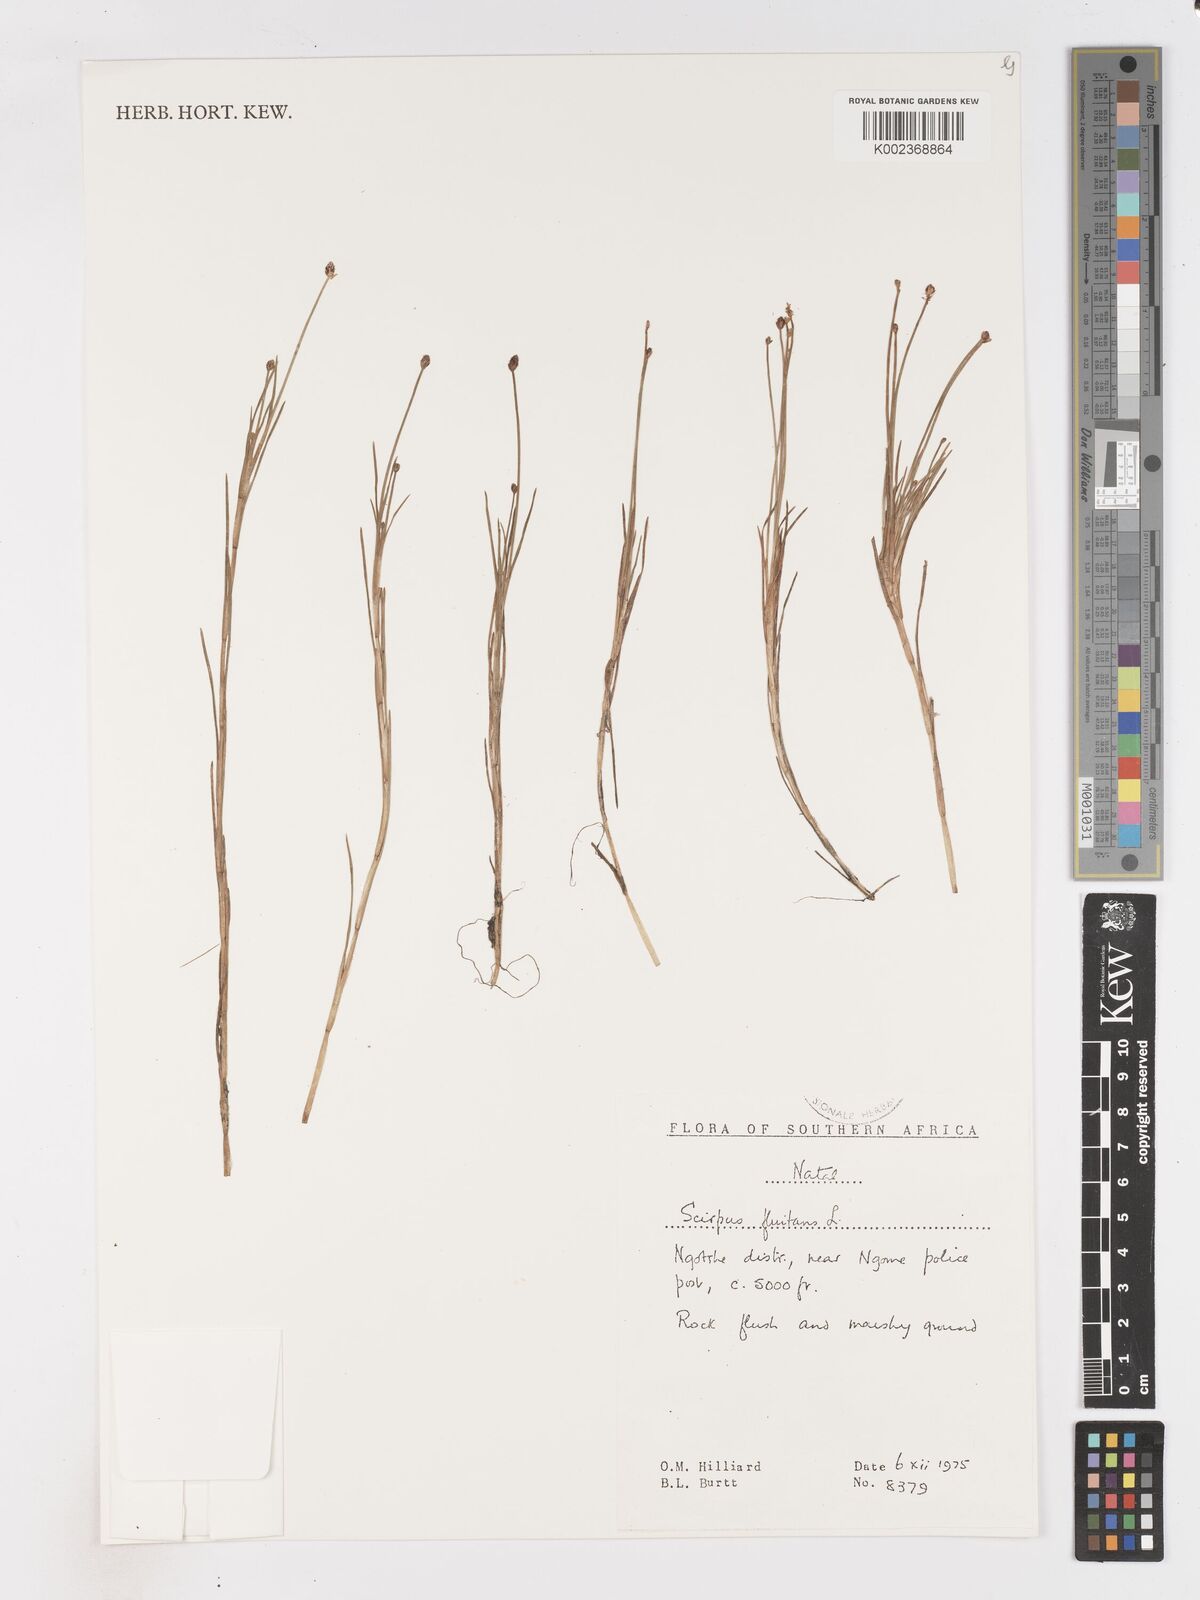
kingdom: Plantae
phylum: Tracheophyta
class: Liliopsida
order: Poales
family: Cyperaceae
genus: Isolepis
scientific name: Isolepis fluitans
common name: Floating club-rush
